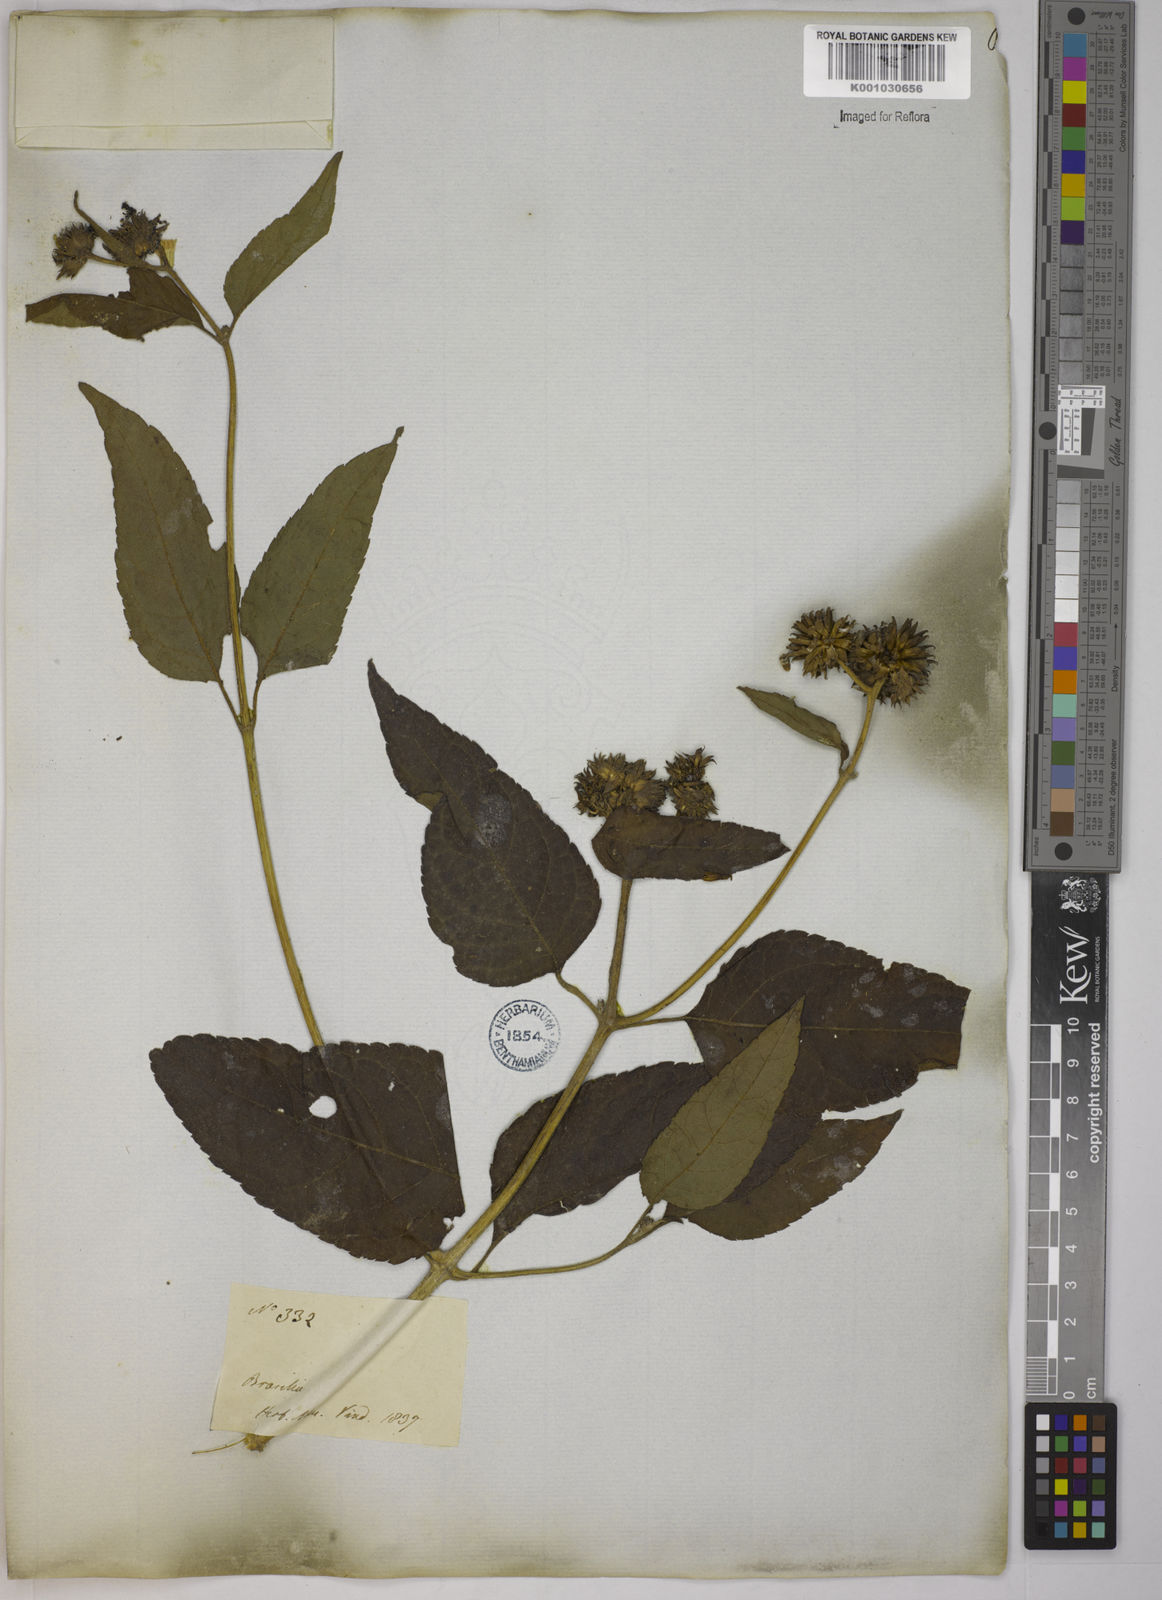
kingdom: Plantae
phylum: Tracheophyta
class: Magnoliopsida
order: Asterales
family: Asteraceae
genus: Tilesia
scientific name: Tilesia baccata
